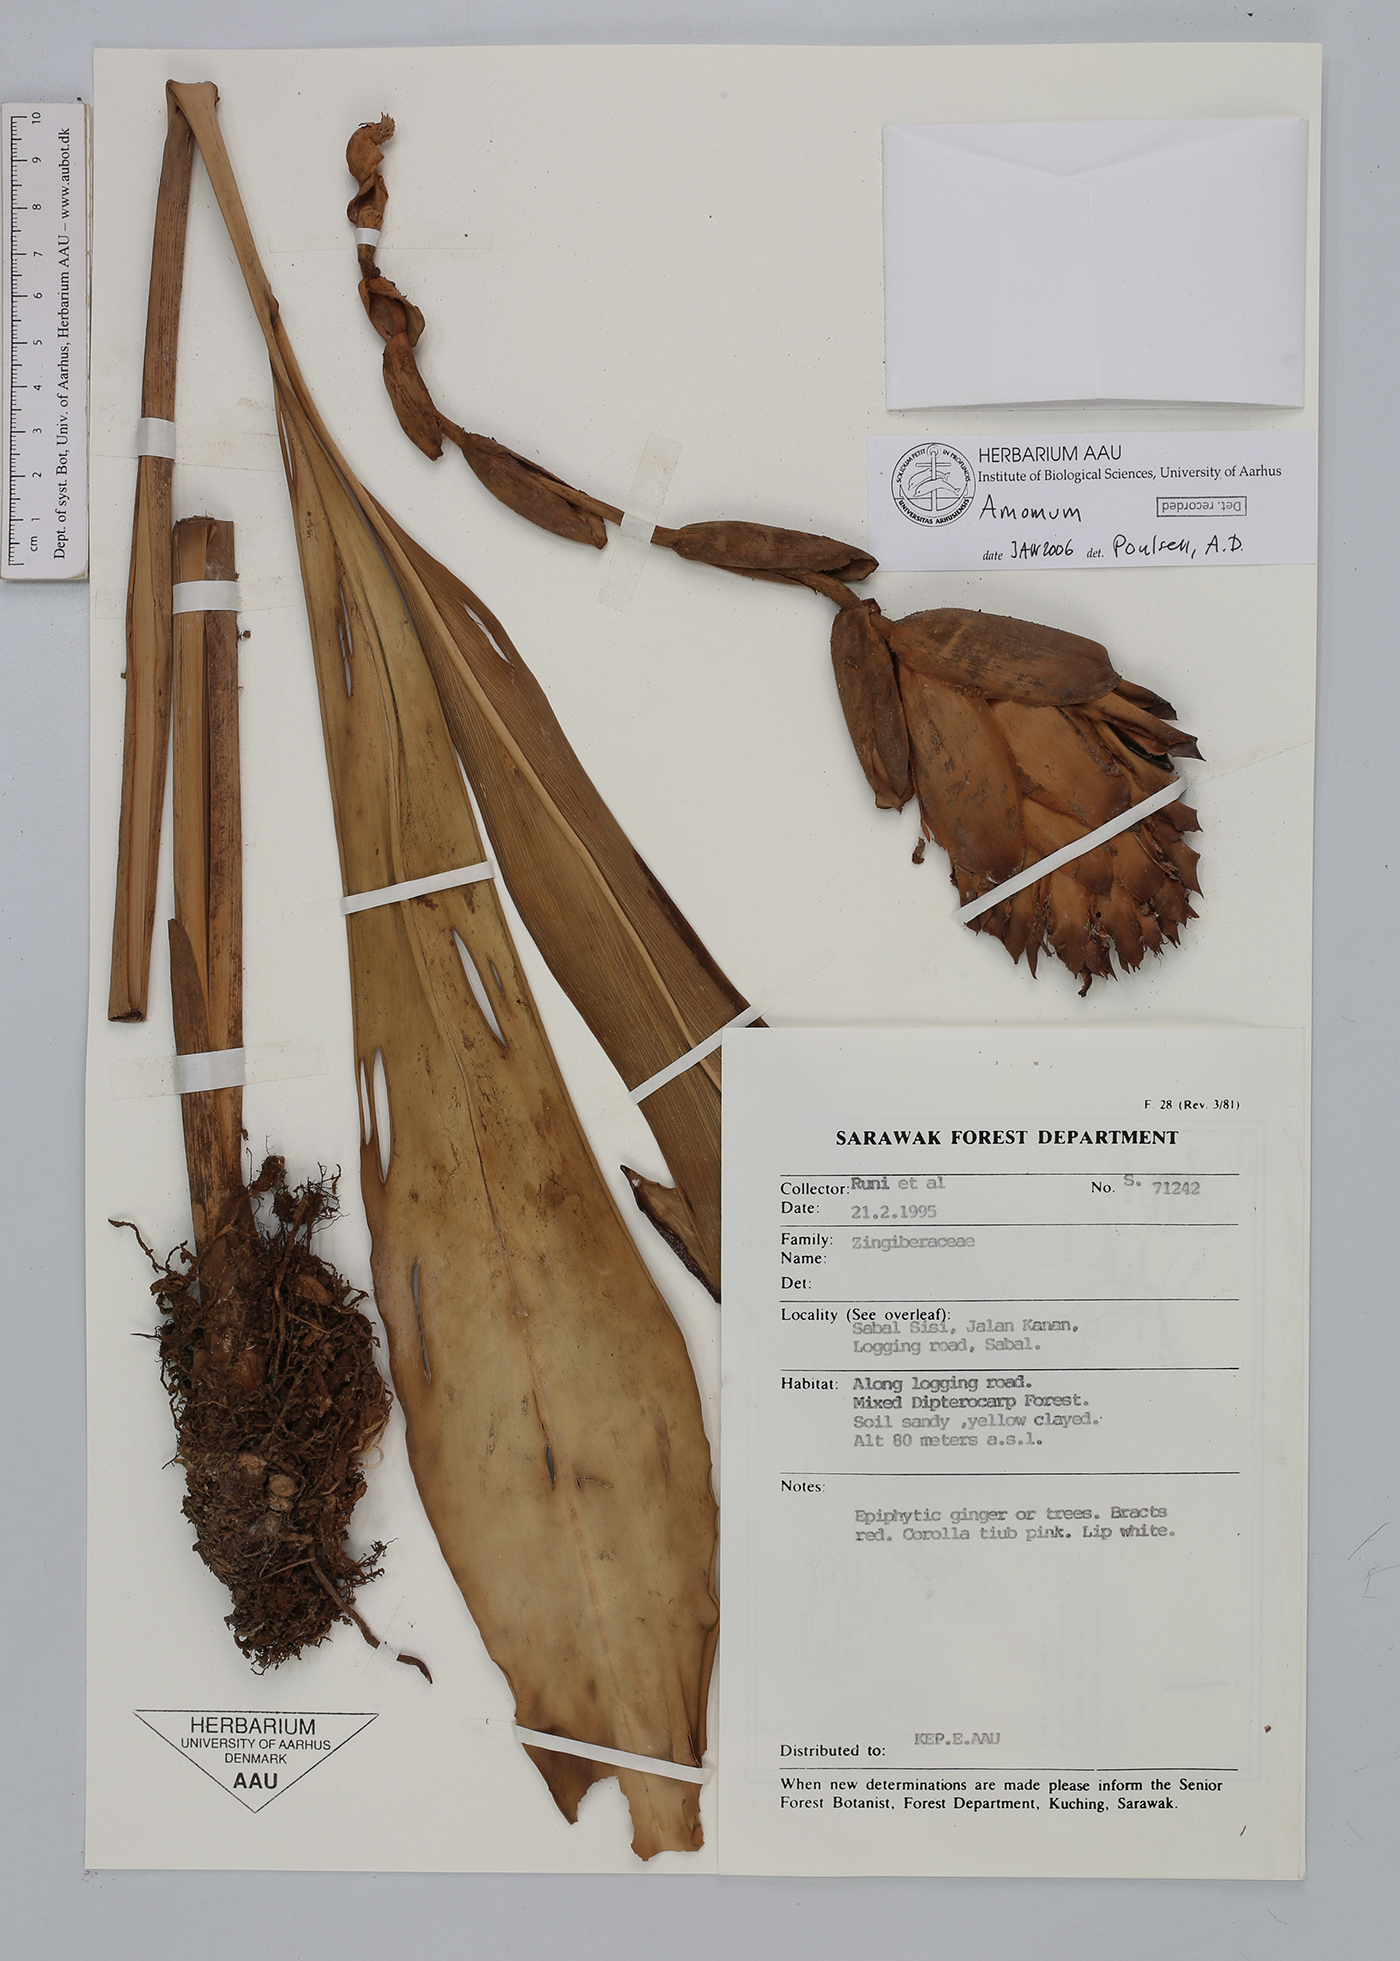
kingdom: Plantae
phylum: Tracheophyta
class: Liliopsida
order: Zingiberales
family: Zingiberaceae
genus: Amomum
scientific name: Amomum
